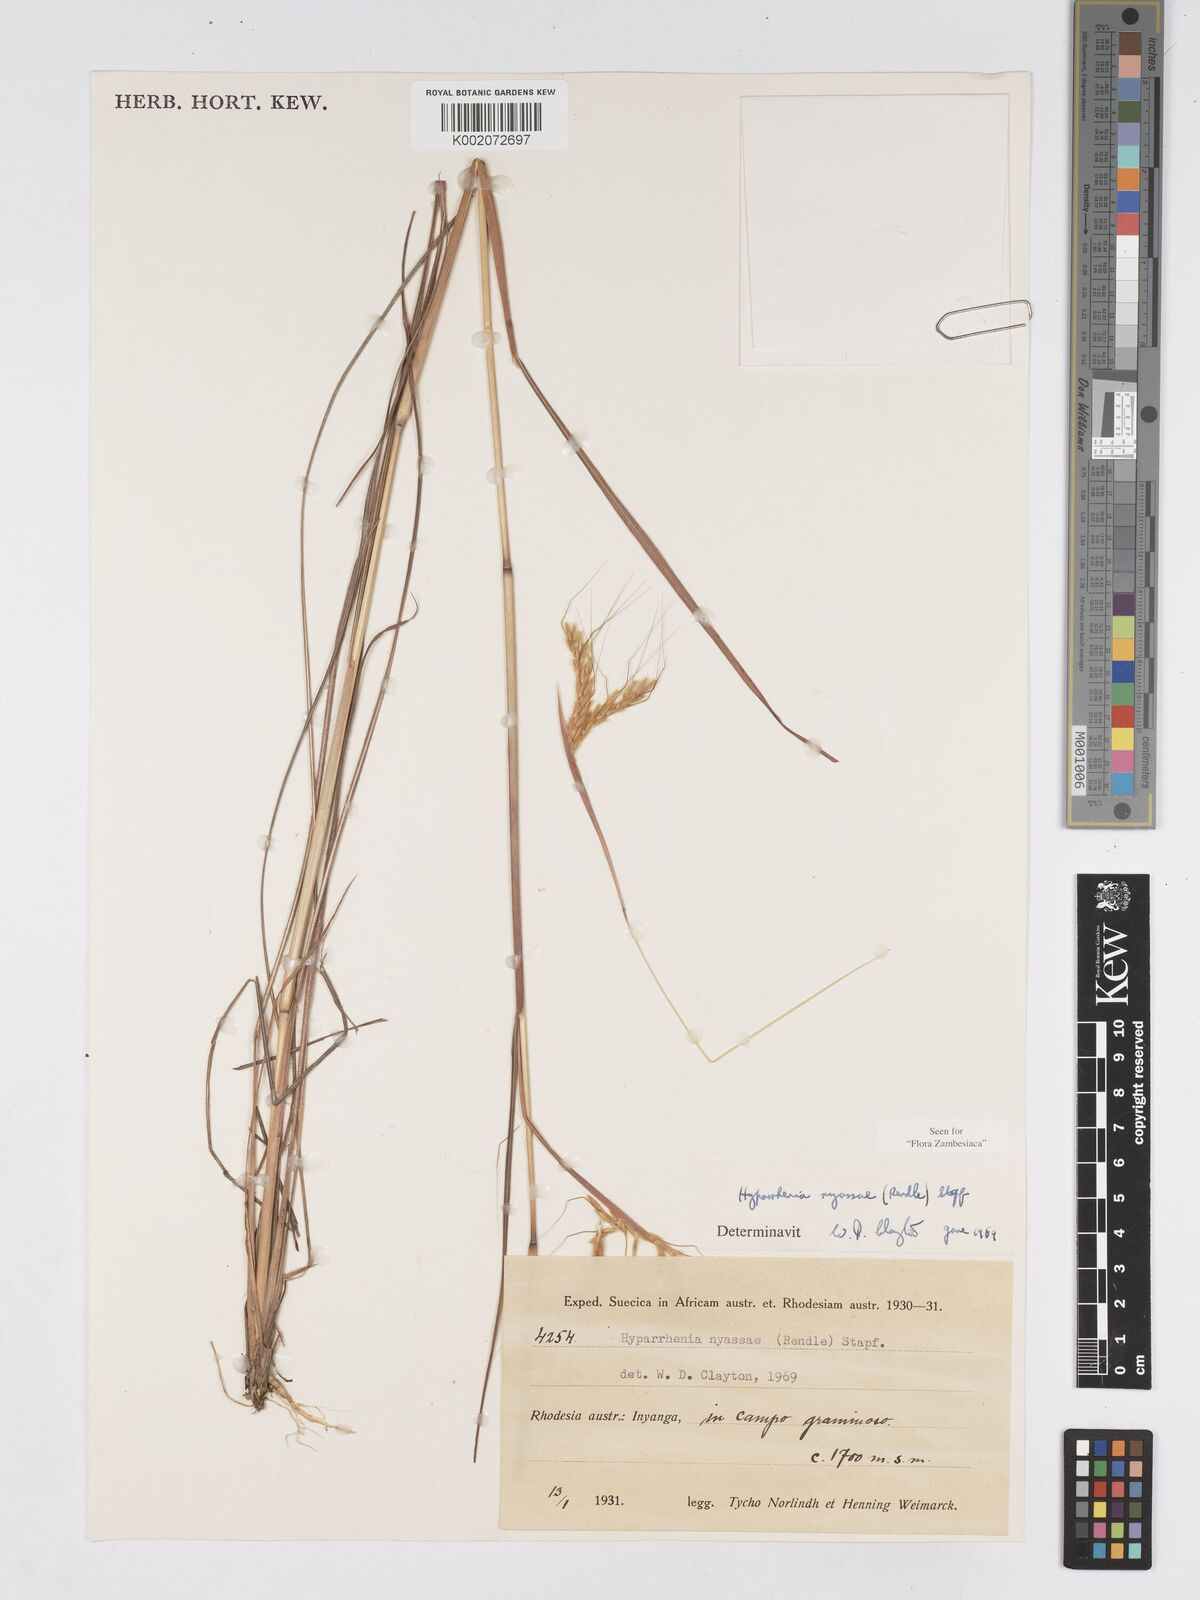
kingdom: Plantae
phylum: Tracheophyta
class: Liliopsida
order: Poales
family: Poaceae
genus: Hyparrhenia
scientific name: Hyparrhenia nyassae
